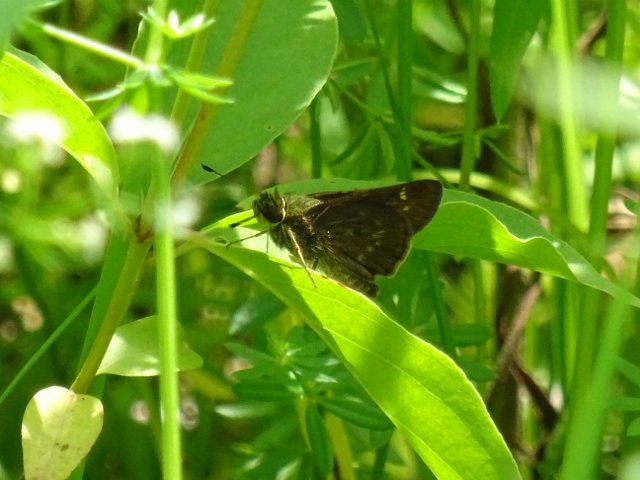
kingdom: Animalia
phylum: Arthropoda
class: Insecta
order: Lepidoptera
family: Hesperiidae
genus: Polites
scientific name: Polites egeremet
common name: Northern Broken-Dash
